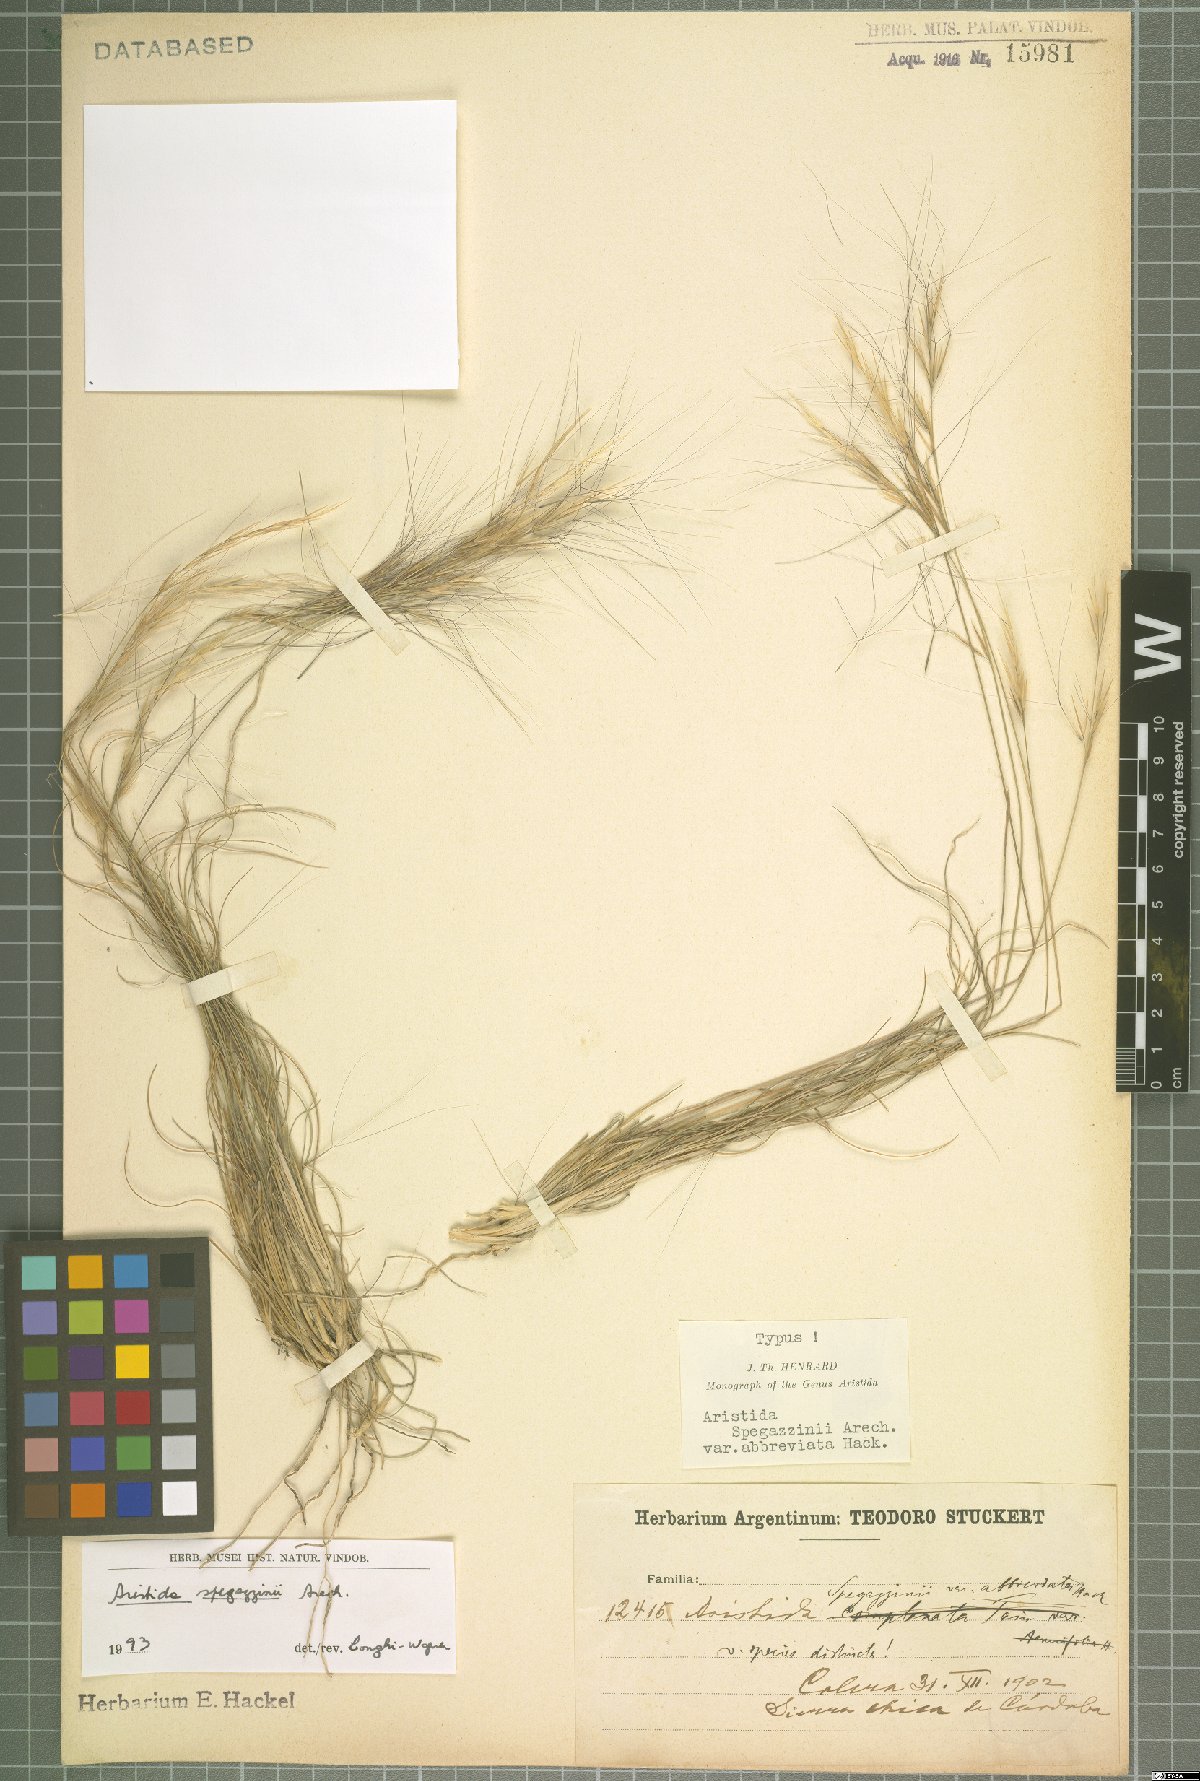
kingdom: Plantae
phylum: Tracheophyta
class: Liliopsida
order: Poales
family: Poaceae
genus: Aristida
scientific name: Aristida spegazzinii
